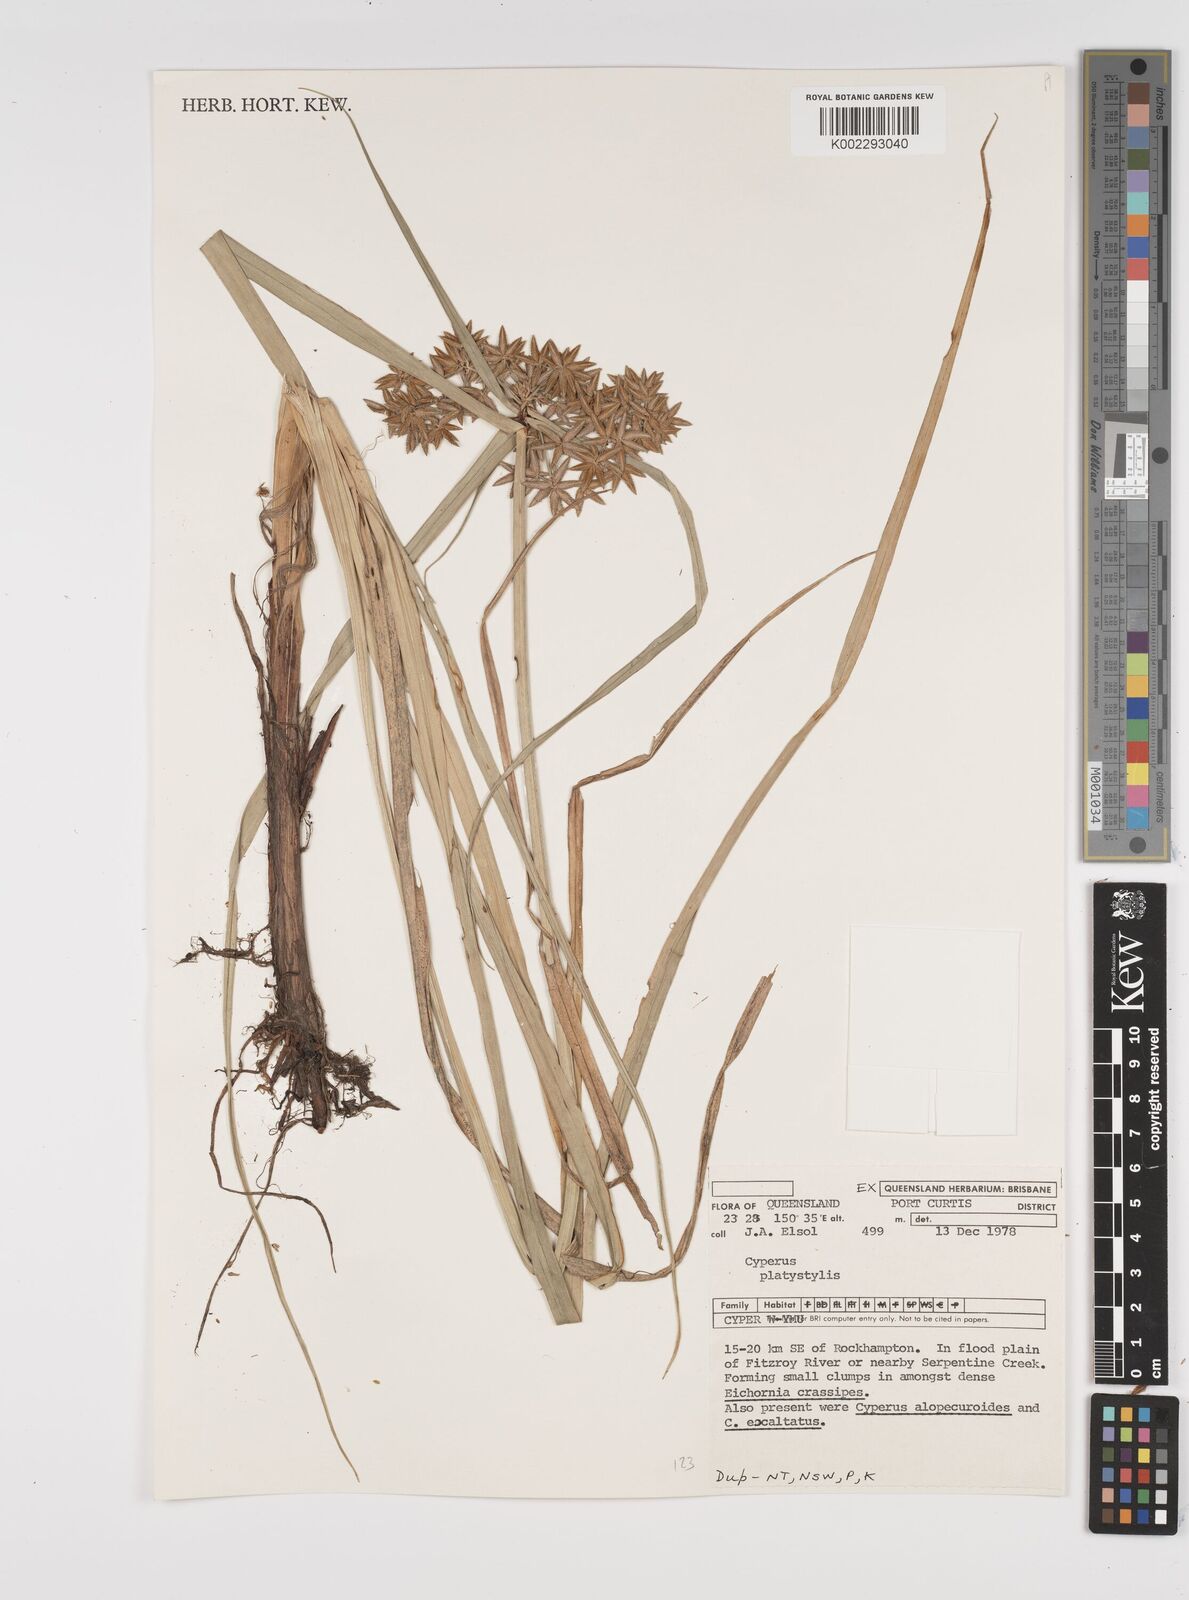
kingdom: Plantae
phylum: Tracheophyta
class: Liliopsida
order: Poales
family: Cyperaceae
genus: Cyperus
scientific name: Cyperus platystylis
